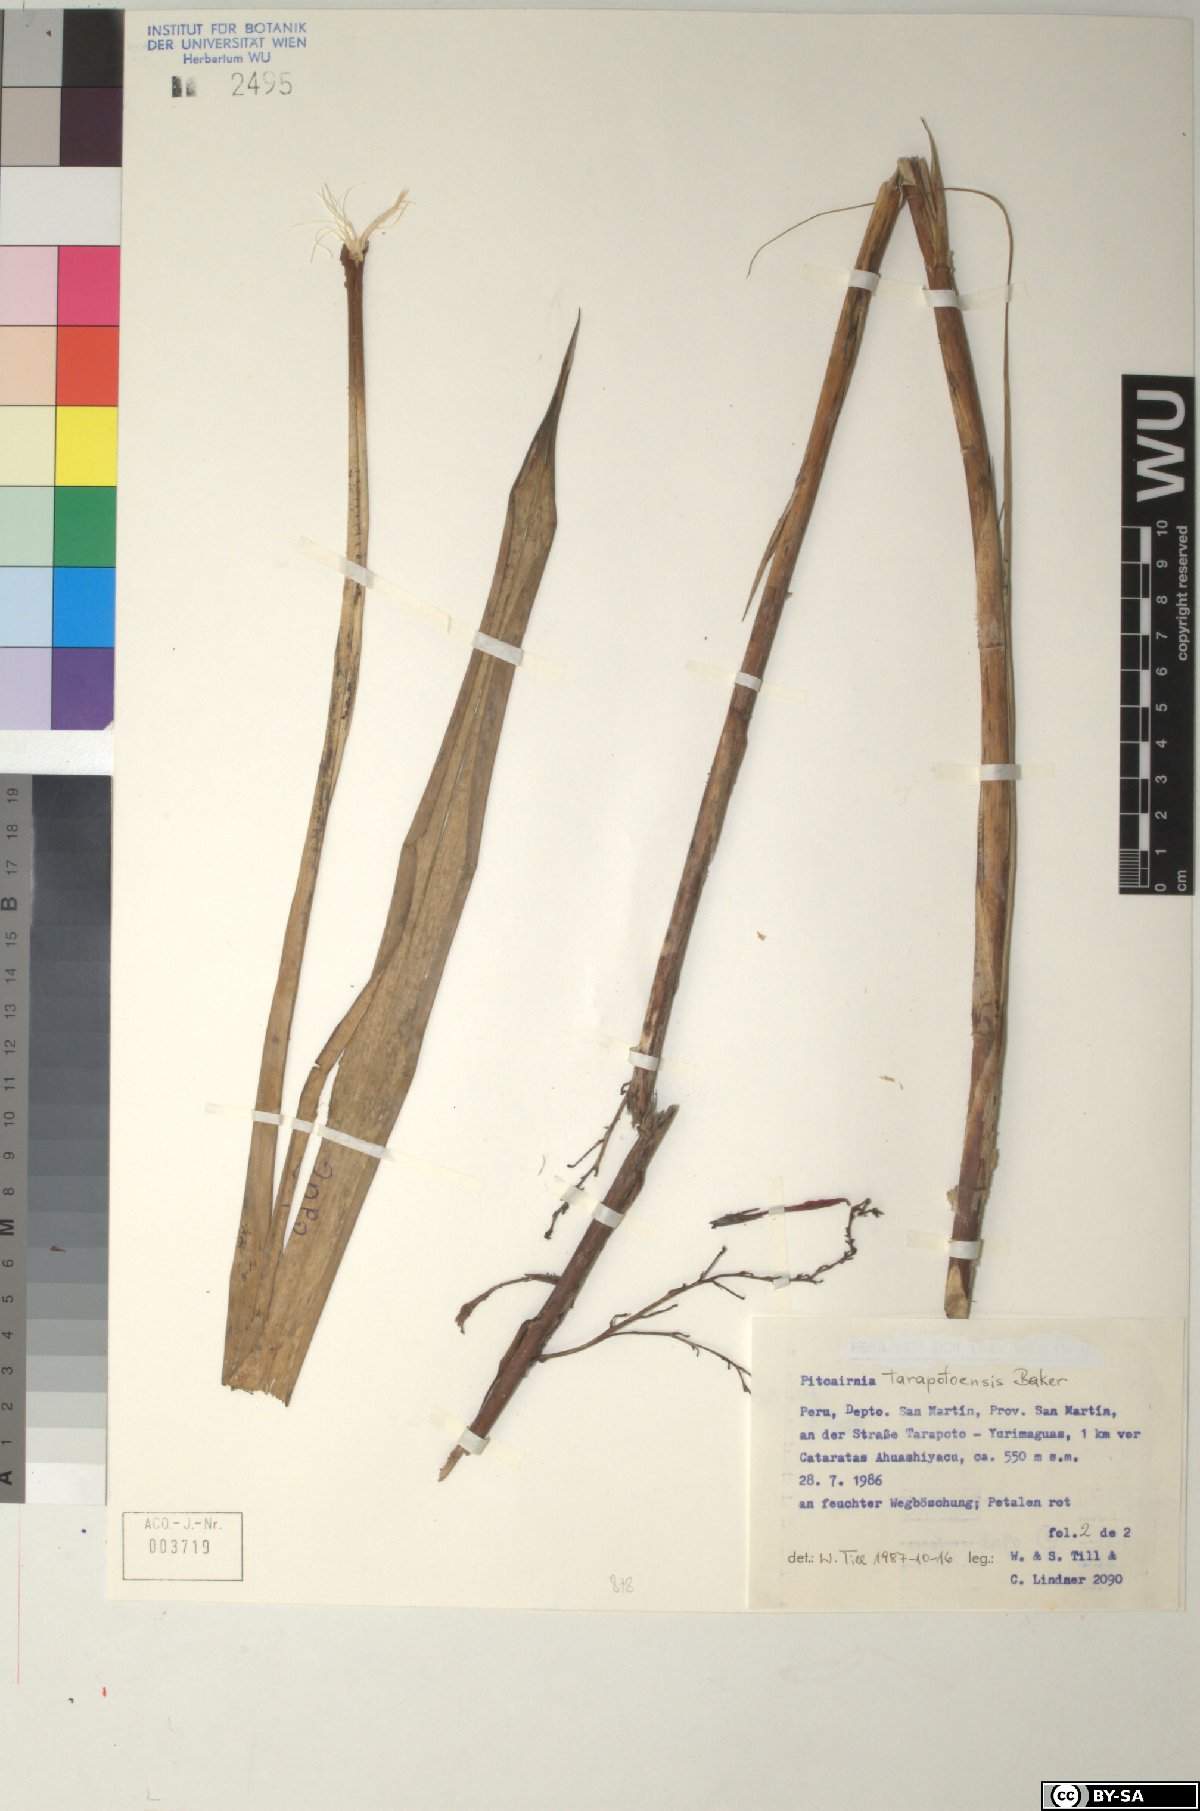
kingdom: Plantae
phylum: Tracheophyta
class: Liliopsida
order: Poales
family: Bromeliaceae
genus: Pitcairnia
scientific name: Pitcairnia tarapotensis
